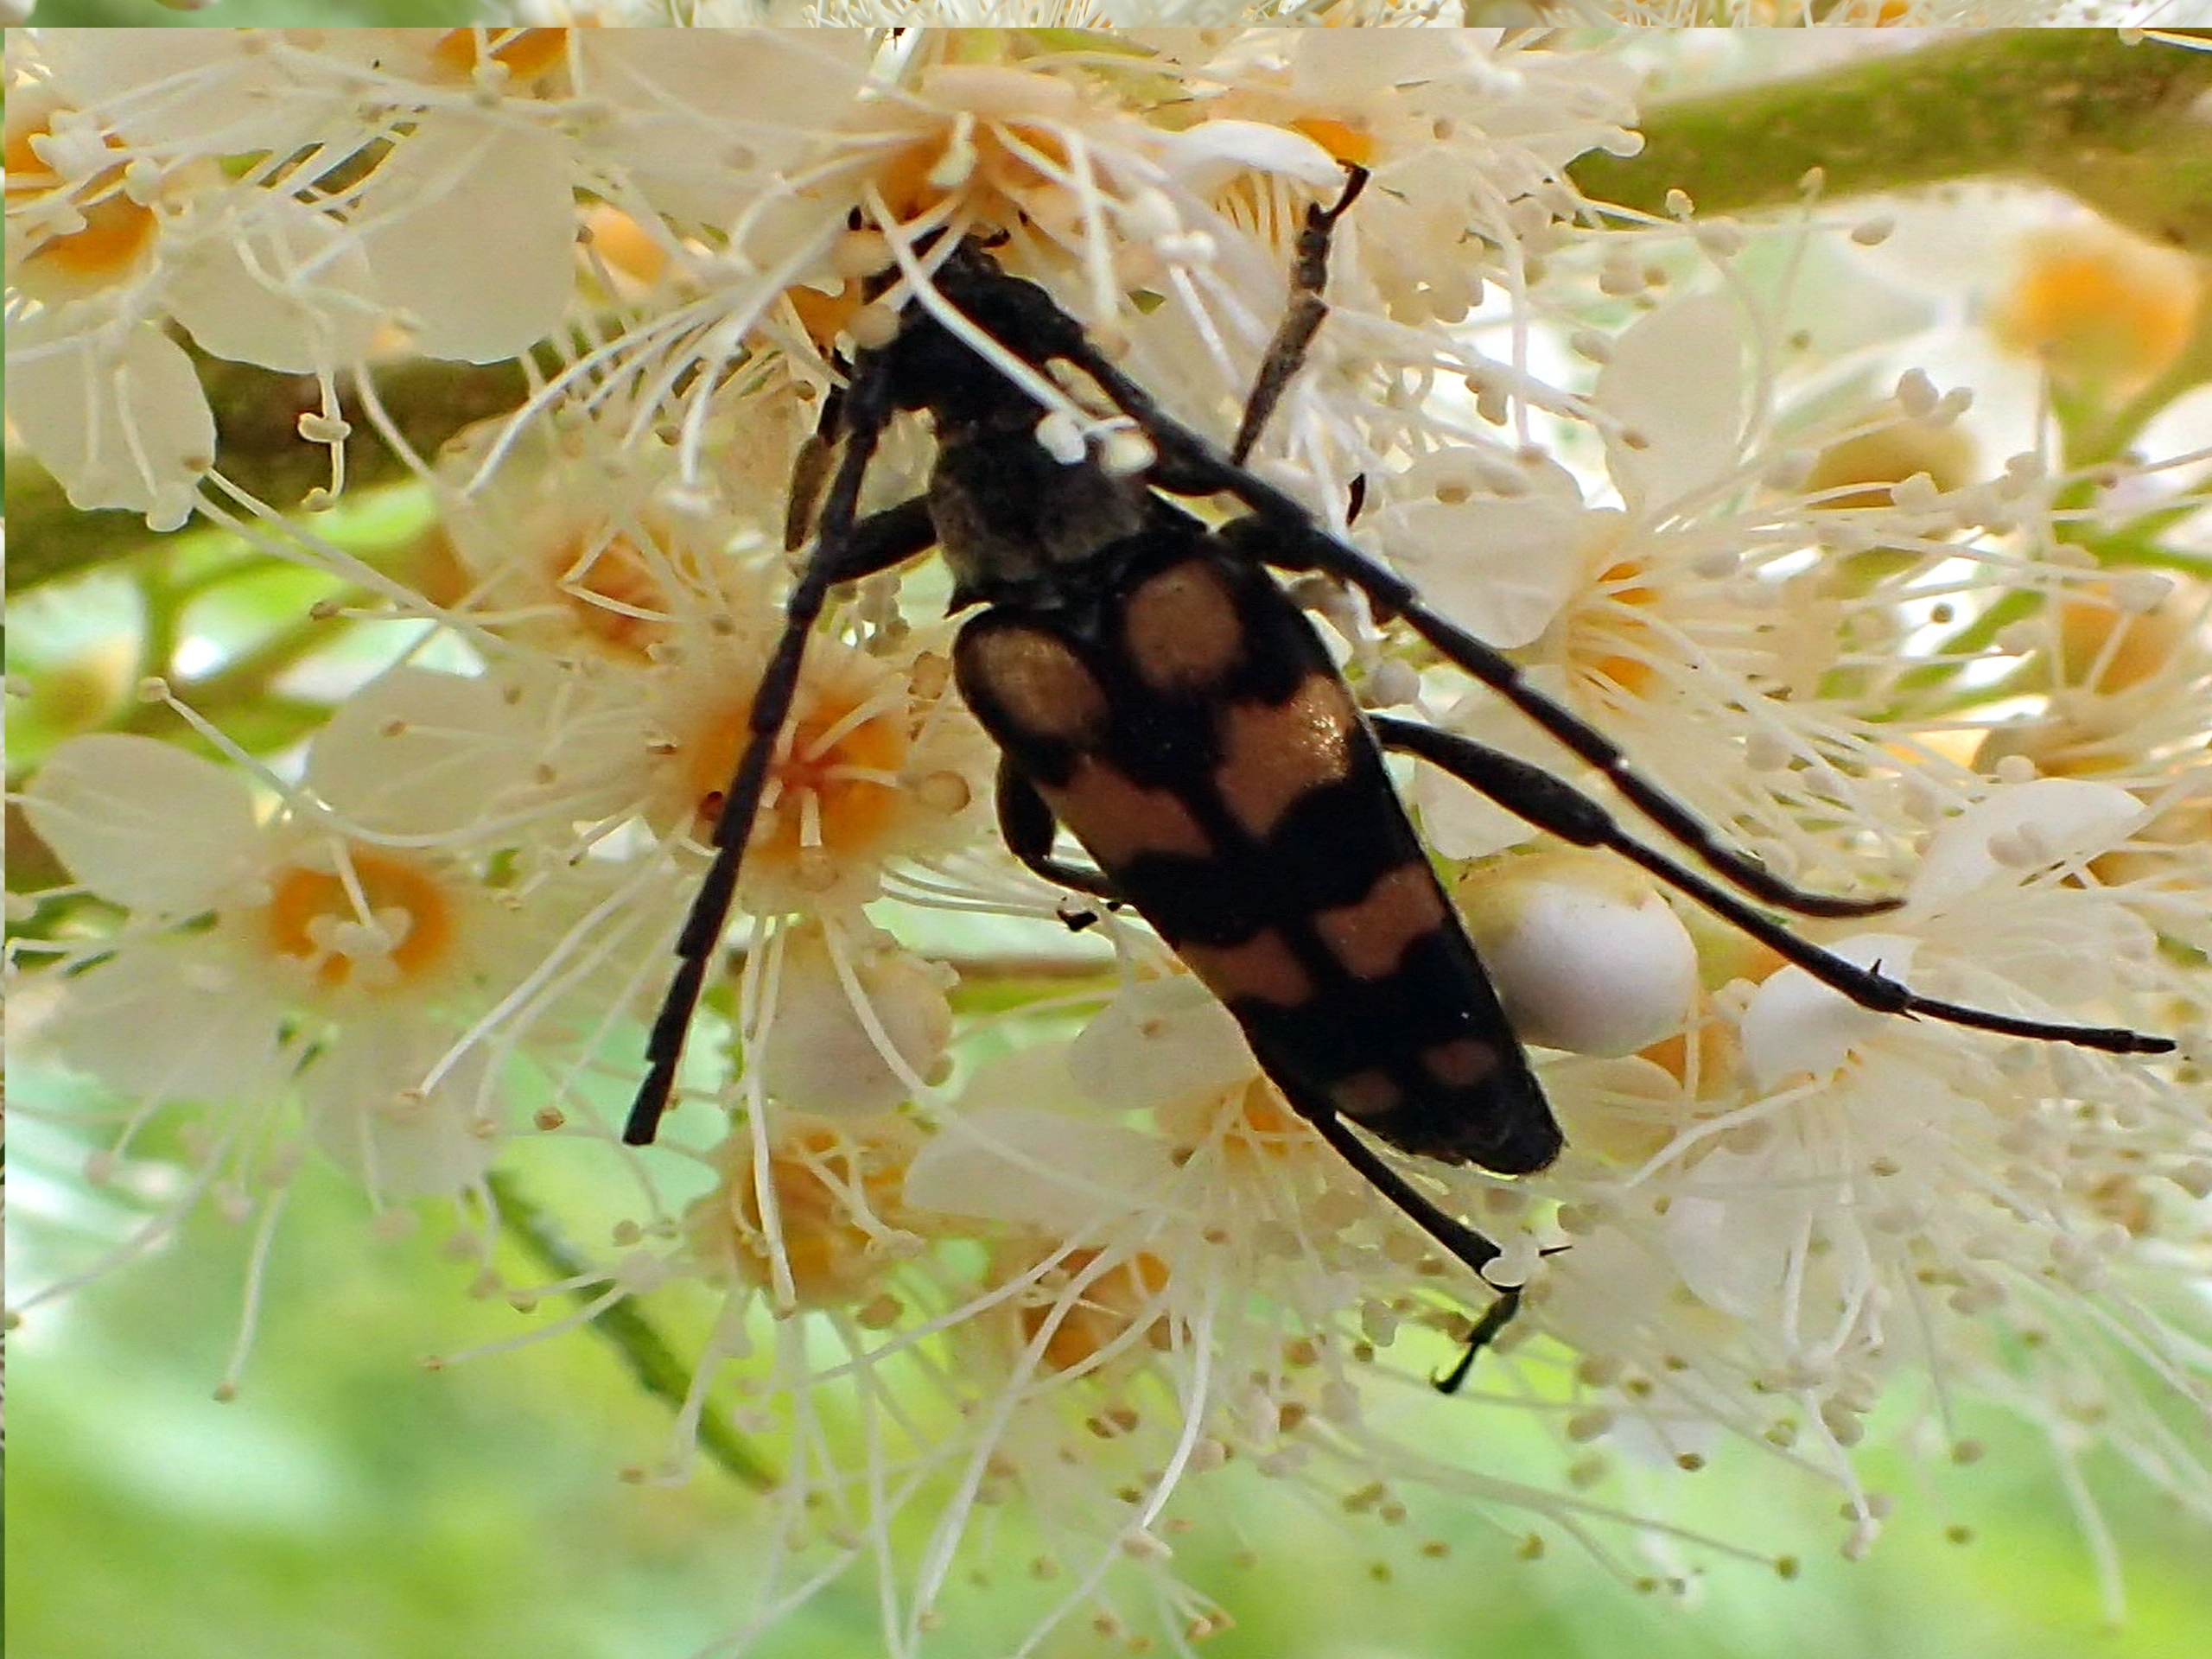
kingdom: Animalia
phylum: Arthropoda
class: Insecta
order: Coleoptera
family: Cerambycidae
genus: Leptura
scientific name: Leptura quadrifasciata
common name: Firebåndet blomsterbuk
